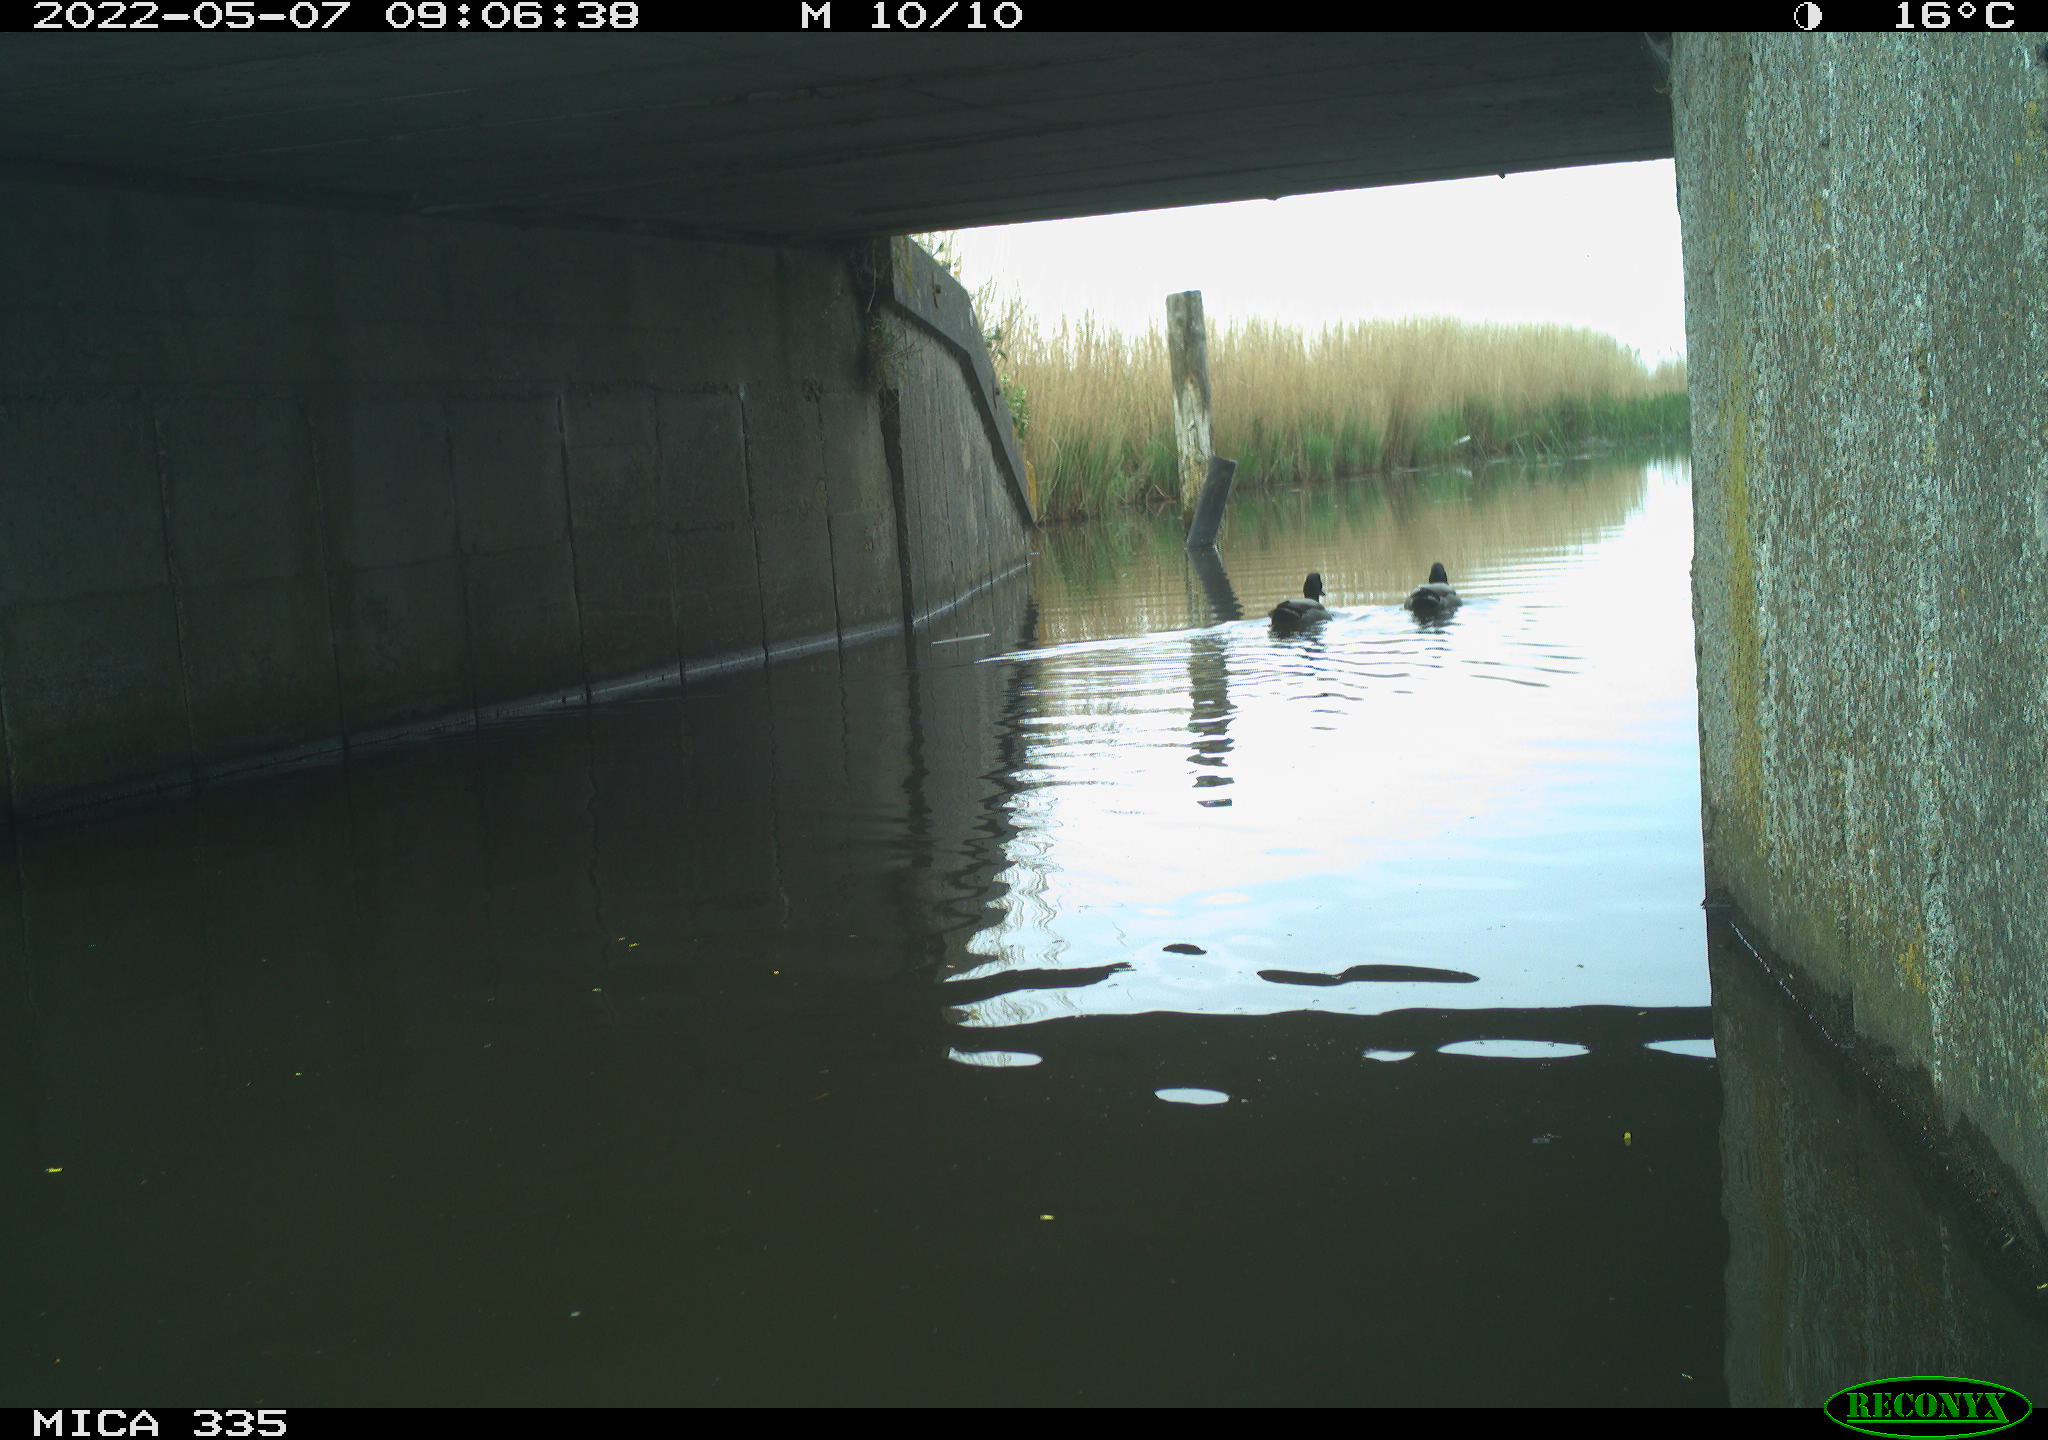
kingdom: Animalia
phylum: Chordata
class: Aves
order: Anseriformes
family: Anatidae
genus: Anas
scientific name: Anas platyrhynchos
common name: Mallard
